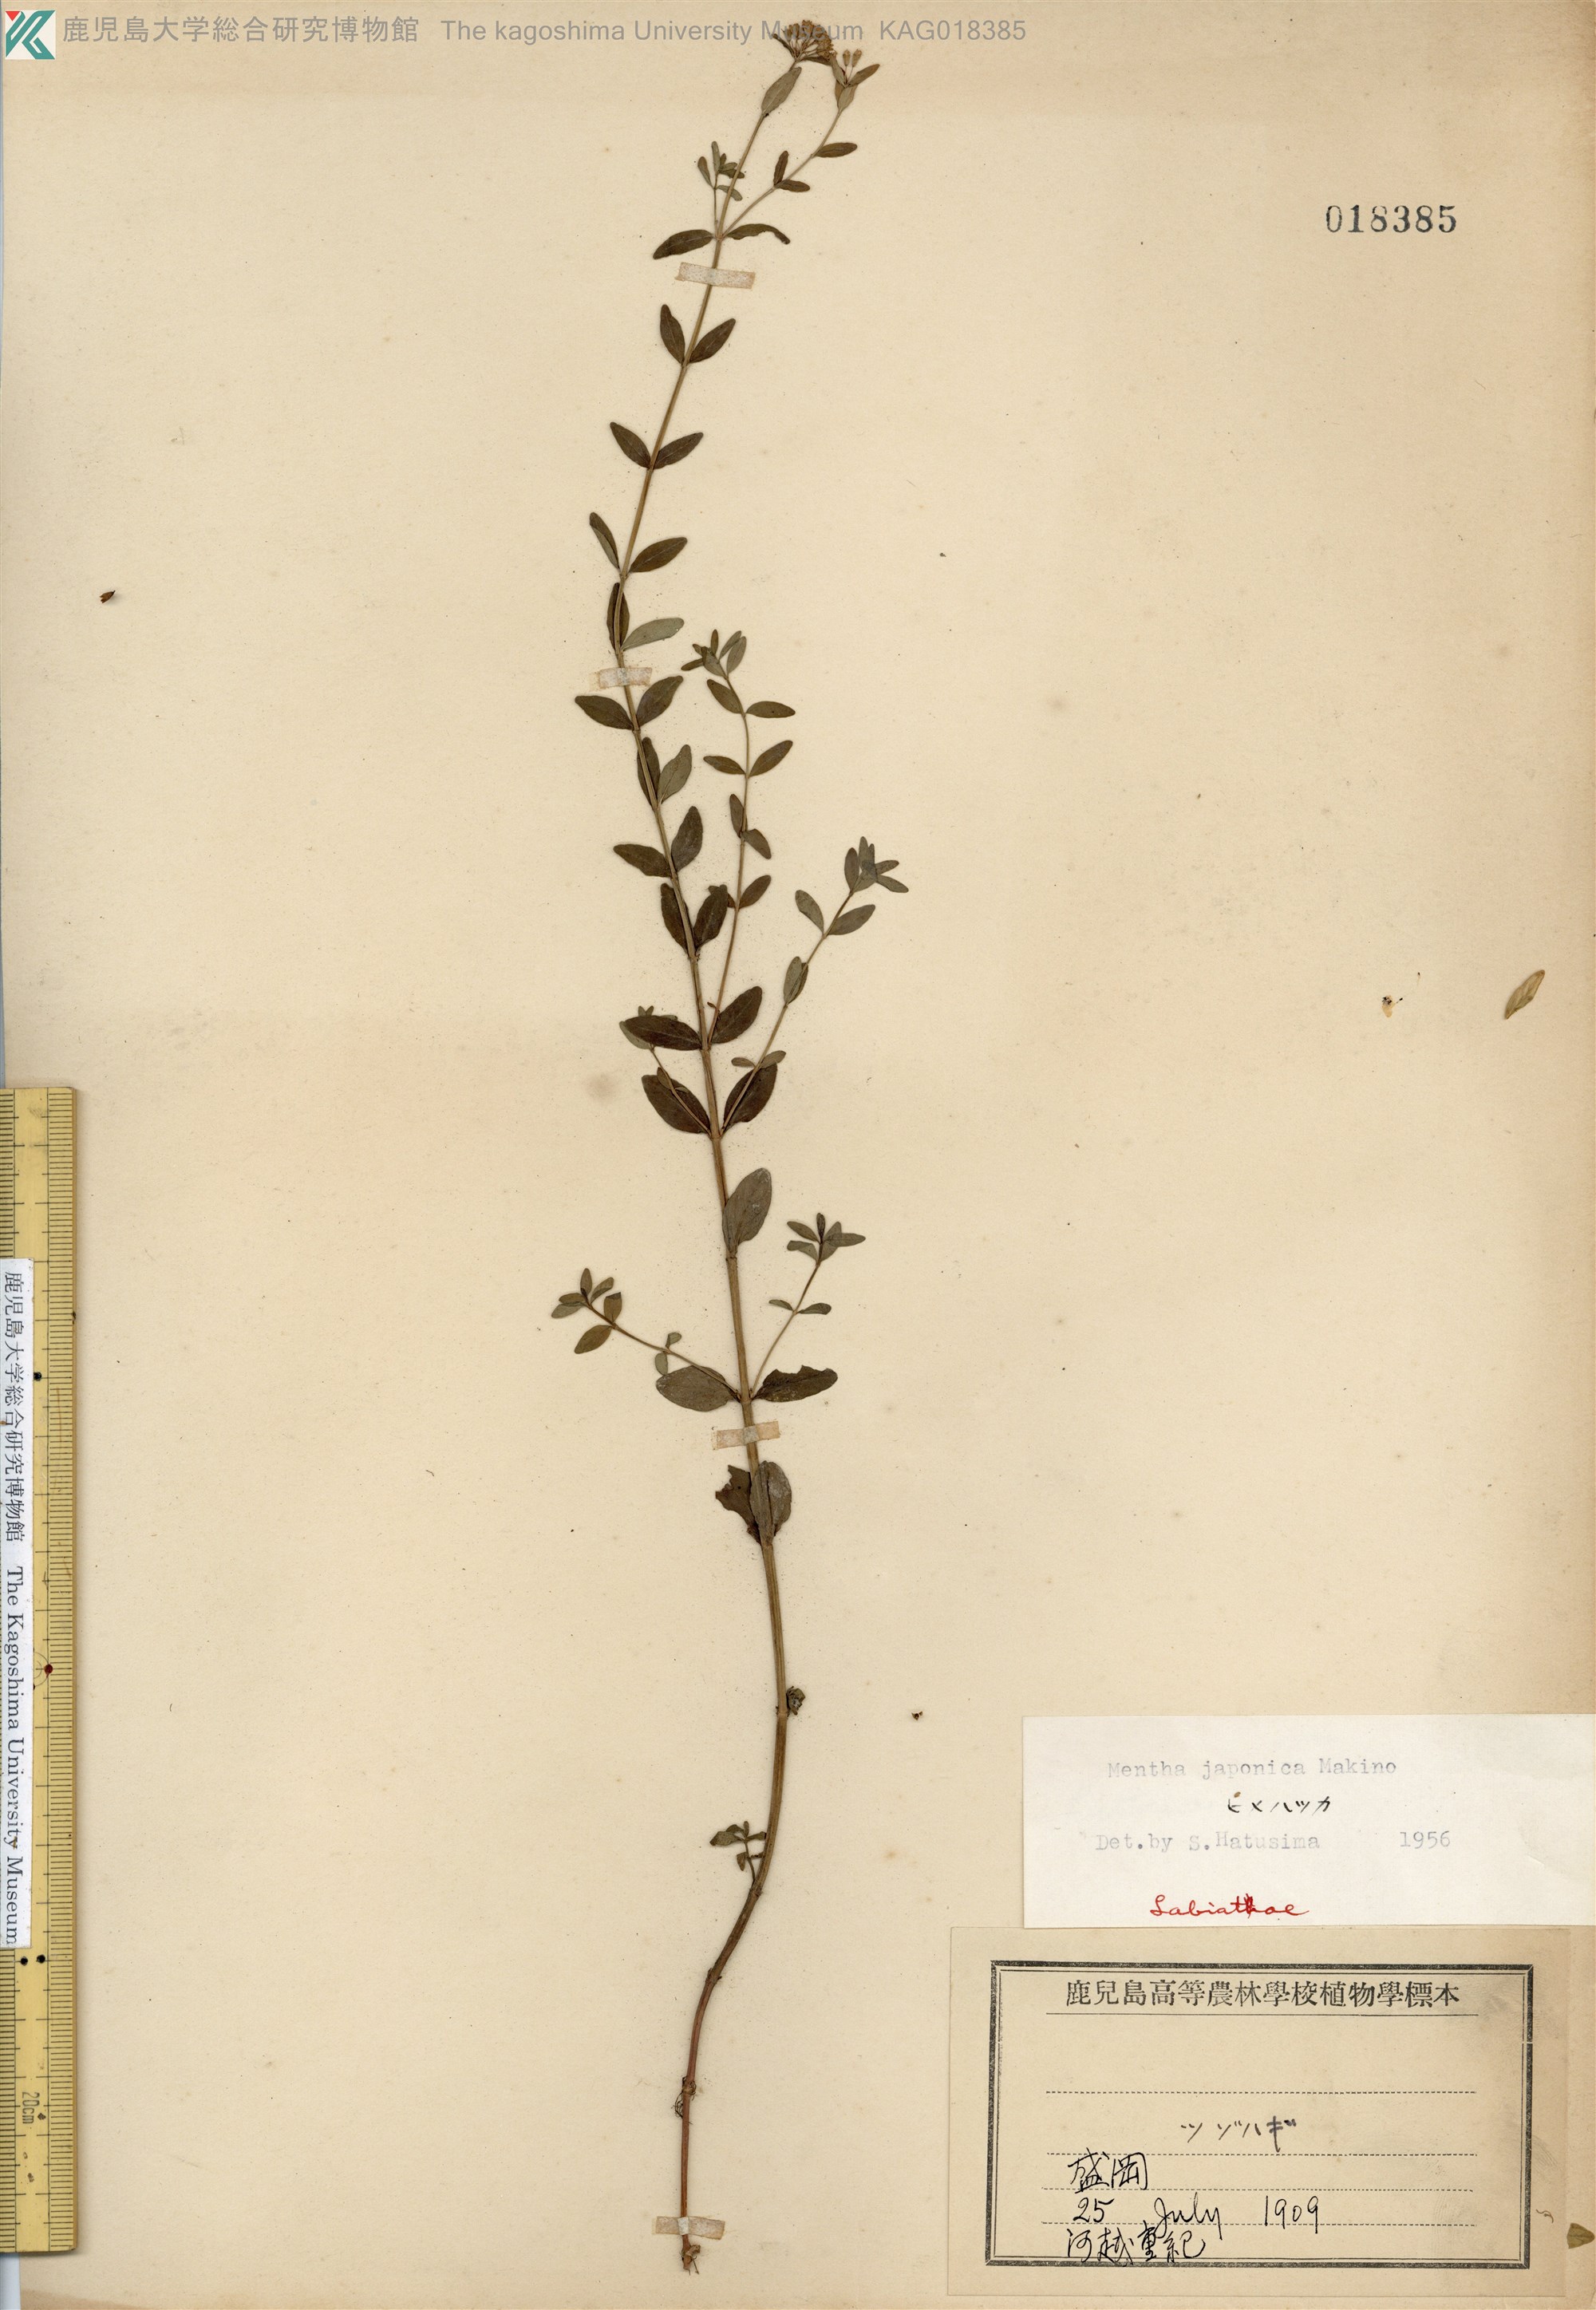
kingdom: Plantae
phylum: Tracheophyta
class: Magnoliopsida
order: Lamiales
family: Lamiaceae
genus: Mentha
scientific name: Mentha japonica
